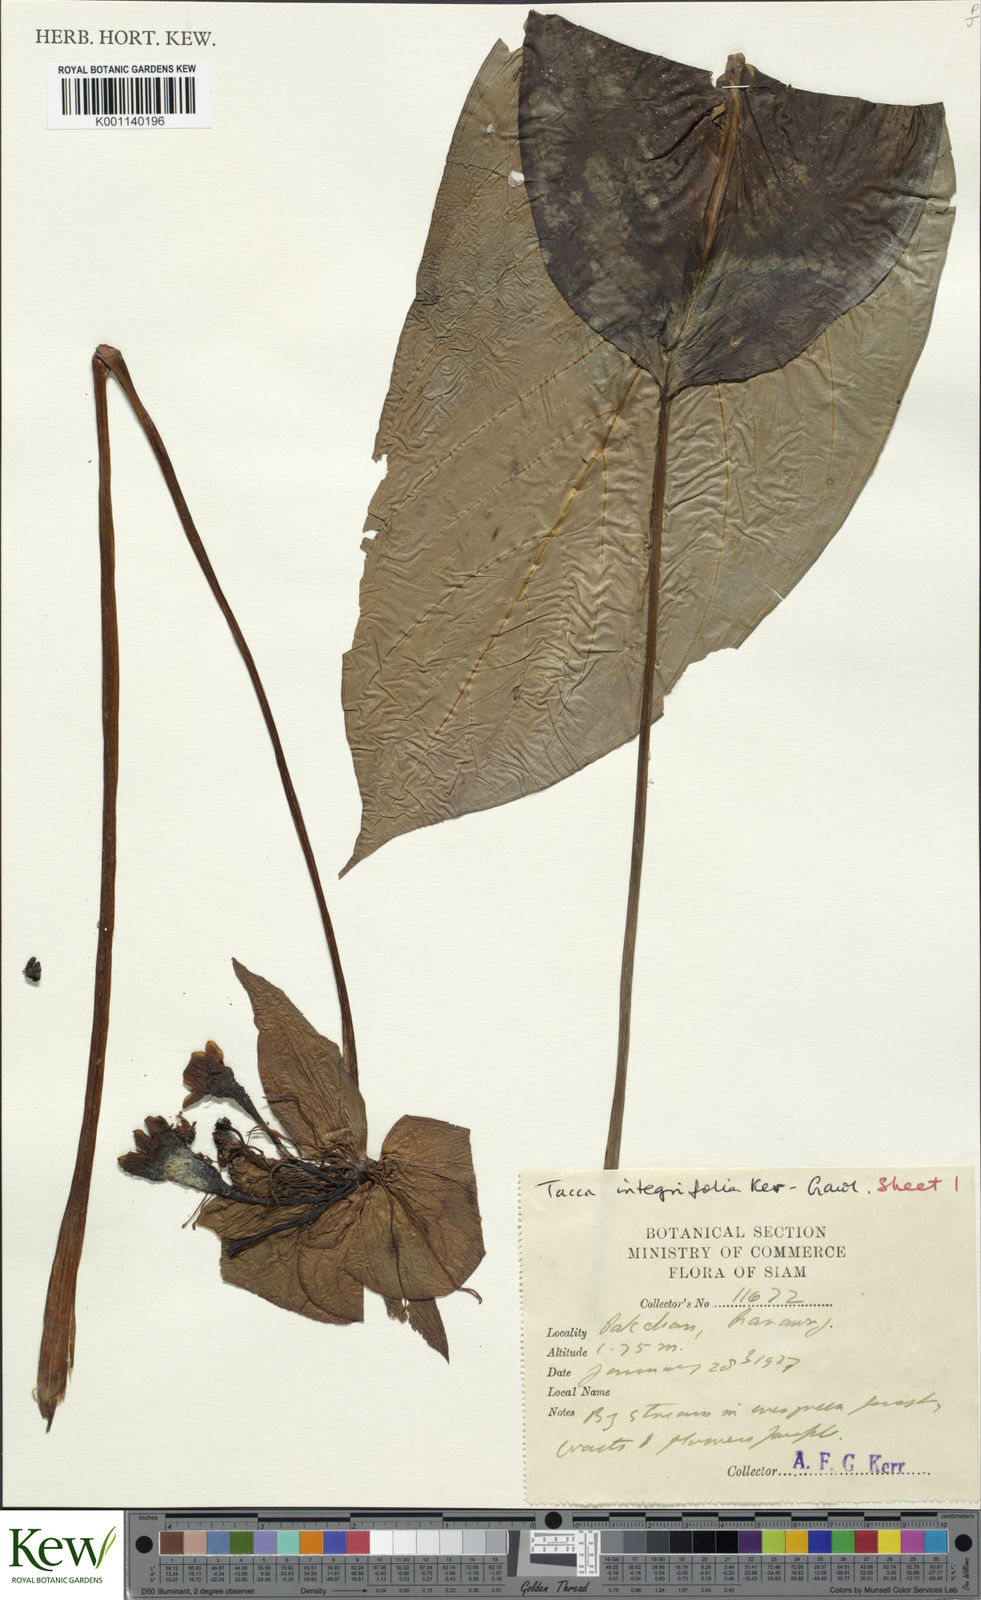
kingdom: Plantae
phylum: Tracheophyta
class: Liliopsida
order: Dioscoreales
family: Dioscoreaceae
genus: Tacca
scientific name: Tacca integrifolia
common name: Batplant
